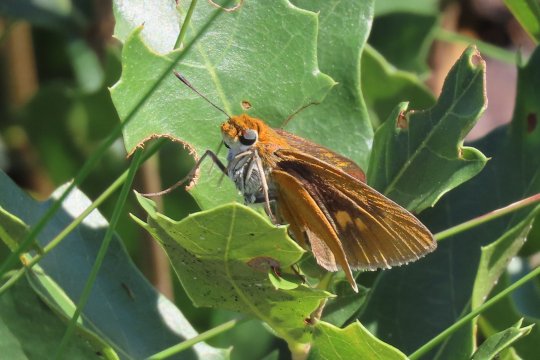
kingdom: Animalia
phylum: Arthropoda
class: Insecta
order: Lepidoptera
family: Hesperiidae
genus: Euphyes
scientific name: Euphyes arpa
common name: Palmetto Skipper
